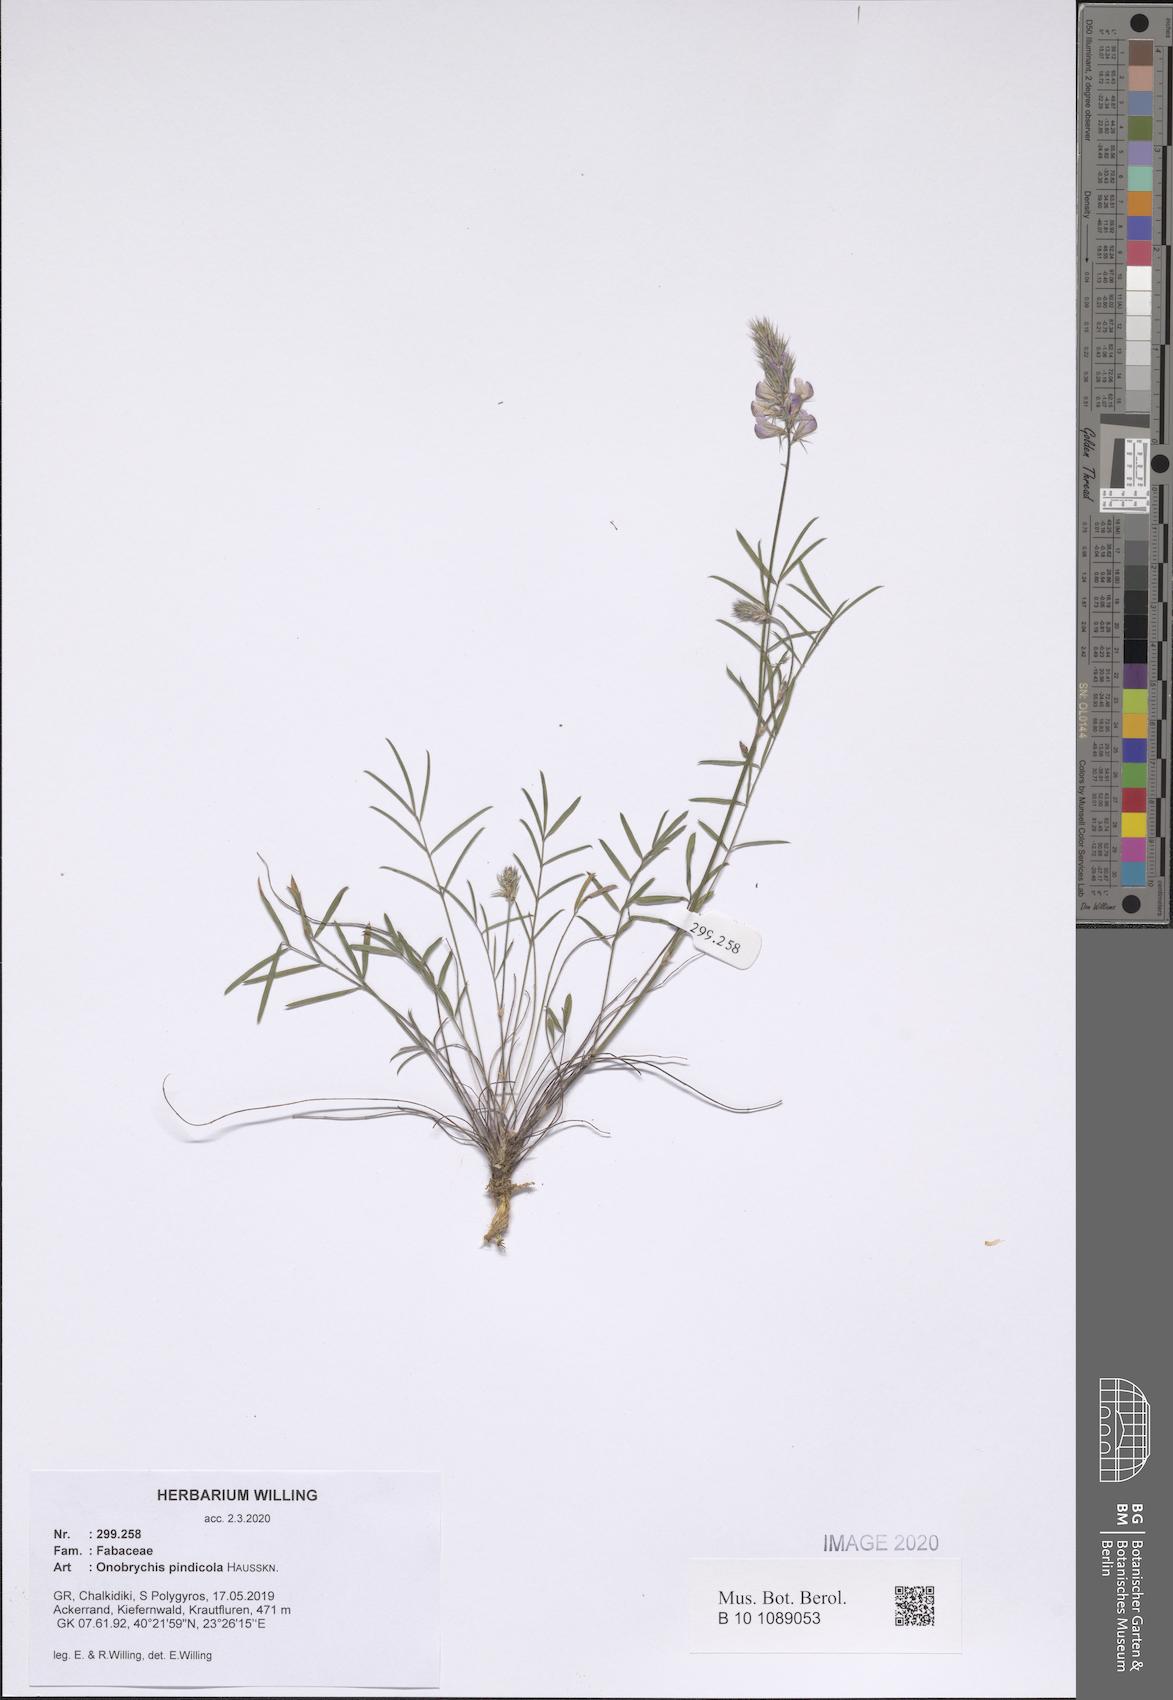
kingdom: Plantae
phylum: Tracheophyta
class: Magnoliopsida
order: Fabales
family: Fabaceae
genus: Onobrychis
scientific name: Onobrychis pindicola
